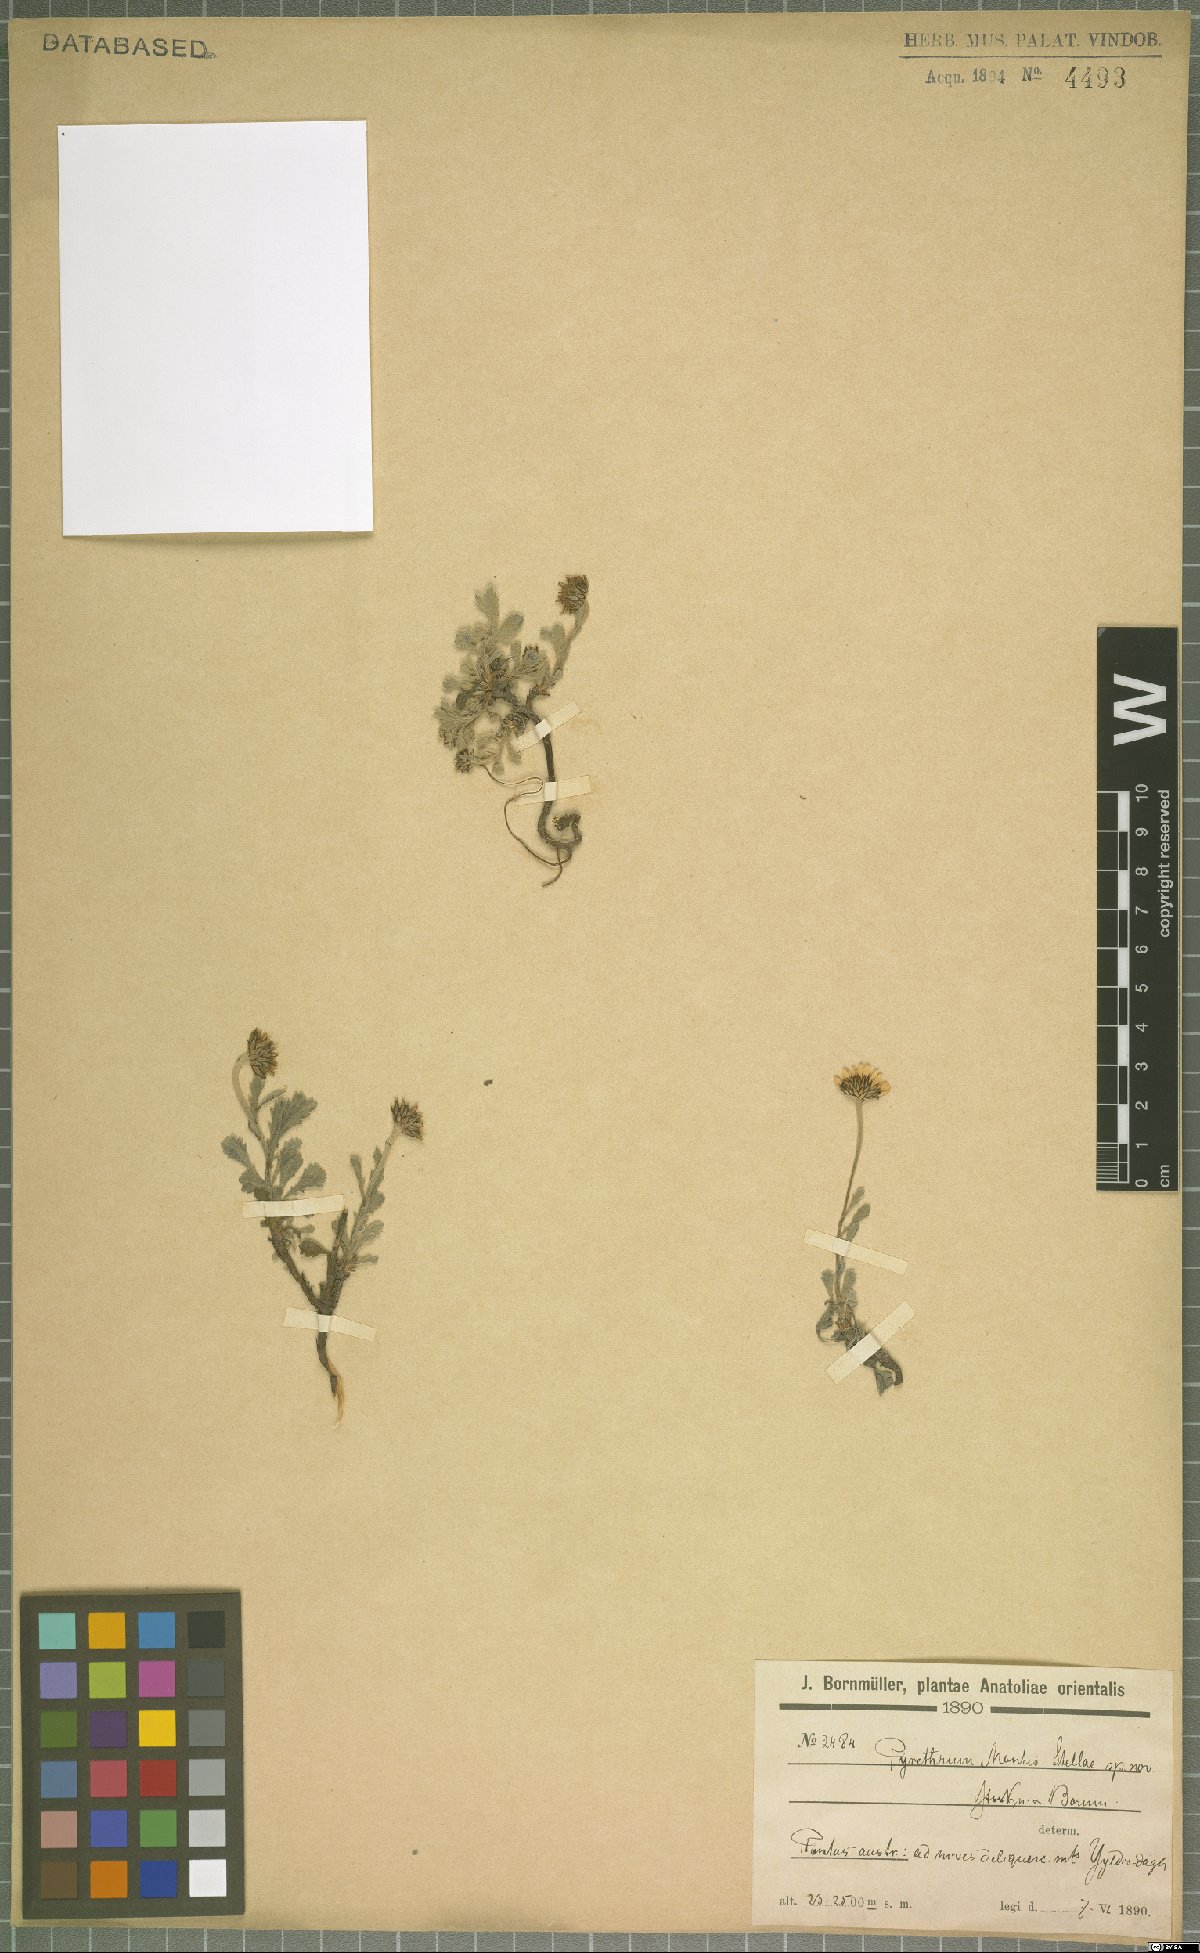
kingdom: Plantae
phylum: Tracheophyta
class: Magnoliopsida
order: Asterales
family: Asteraceae
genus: Pyrethrum
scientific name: Pyrethrum
